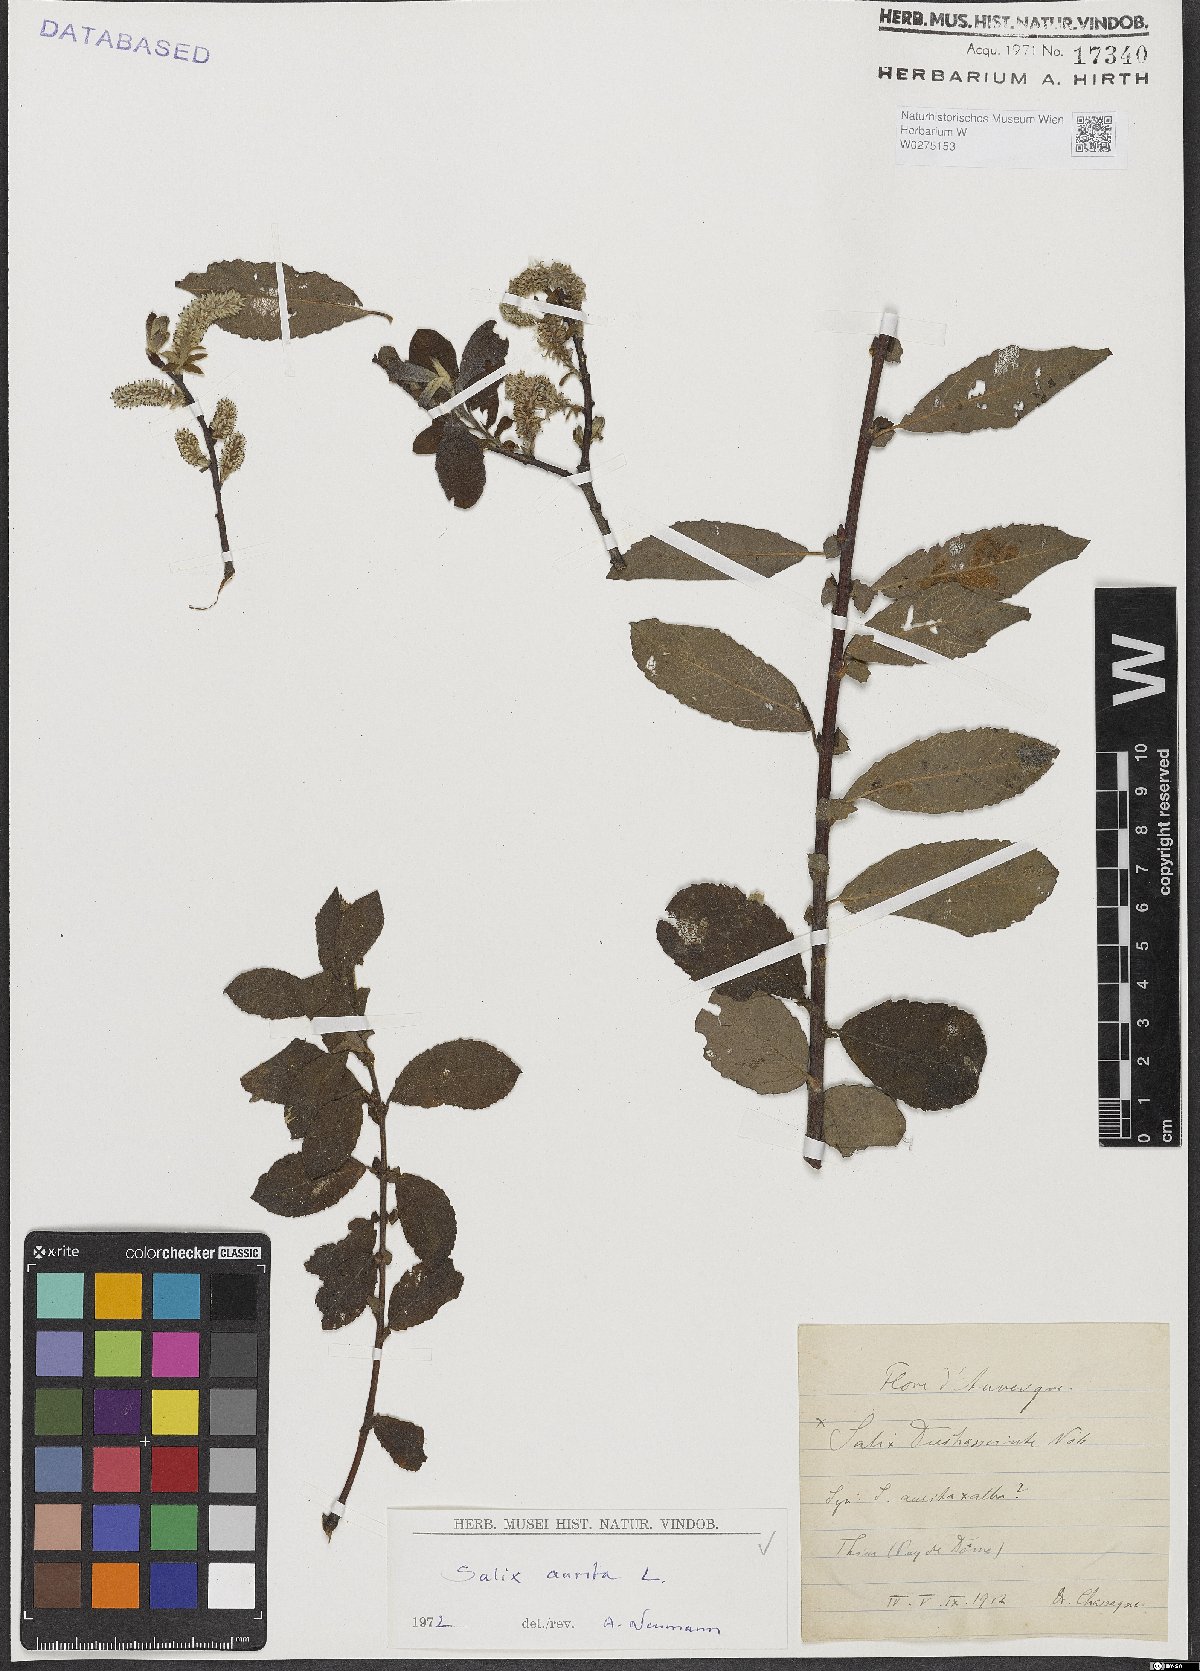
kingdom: Plantae
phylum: Tracheophyta
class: Magnoliopsida
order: Malpighiales
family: Salicaceae
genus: Salix
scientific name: Salix aurita
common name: Eared willow
